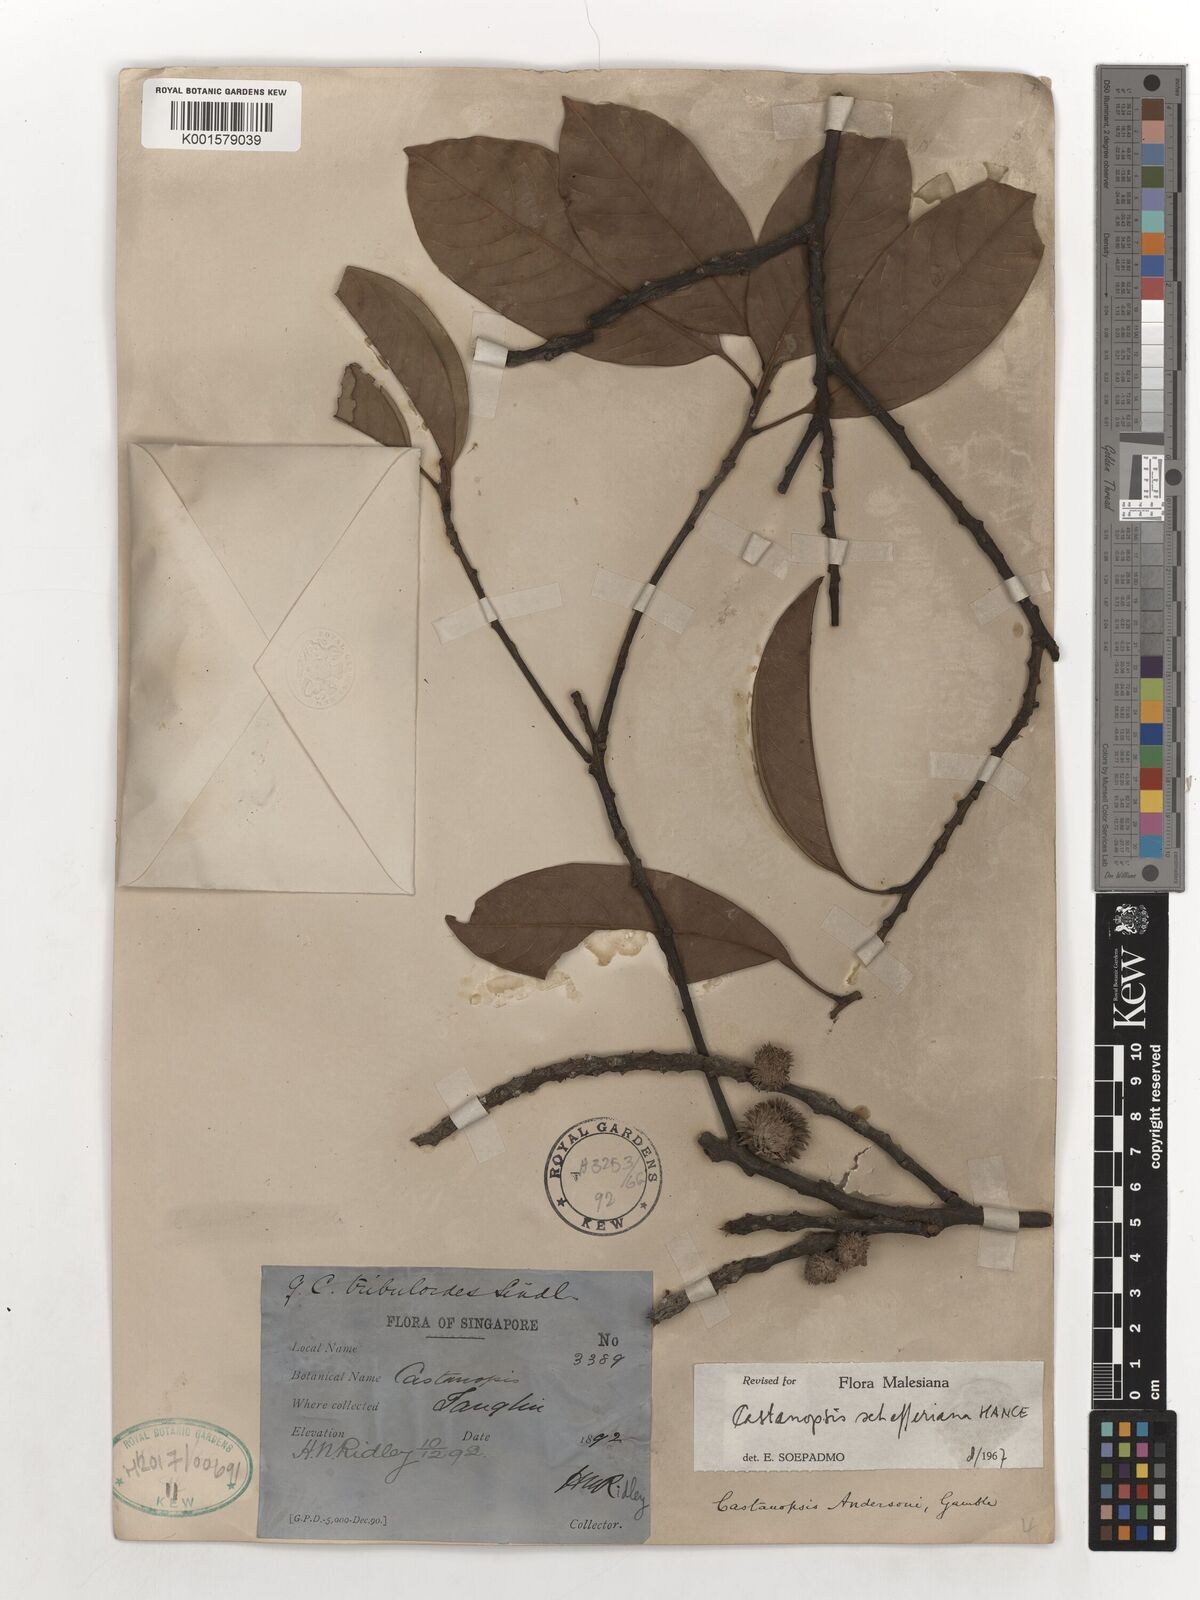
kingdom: Plantae
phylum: Tracheophyta
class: Magnoliopsida
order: Fagales
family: Fagaceae
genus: Castanopsis
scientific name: Castanopsis schefferiana
